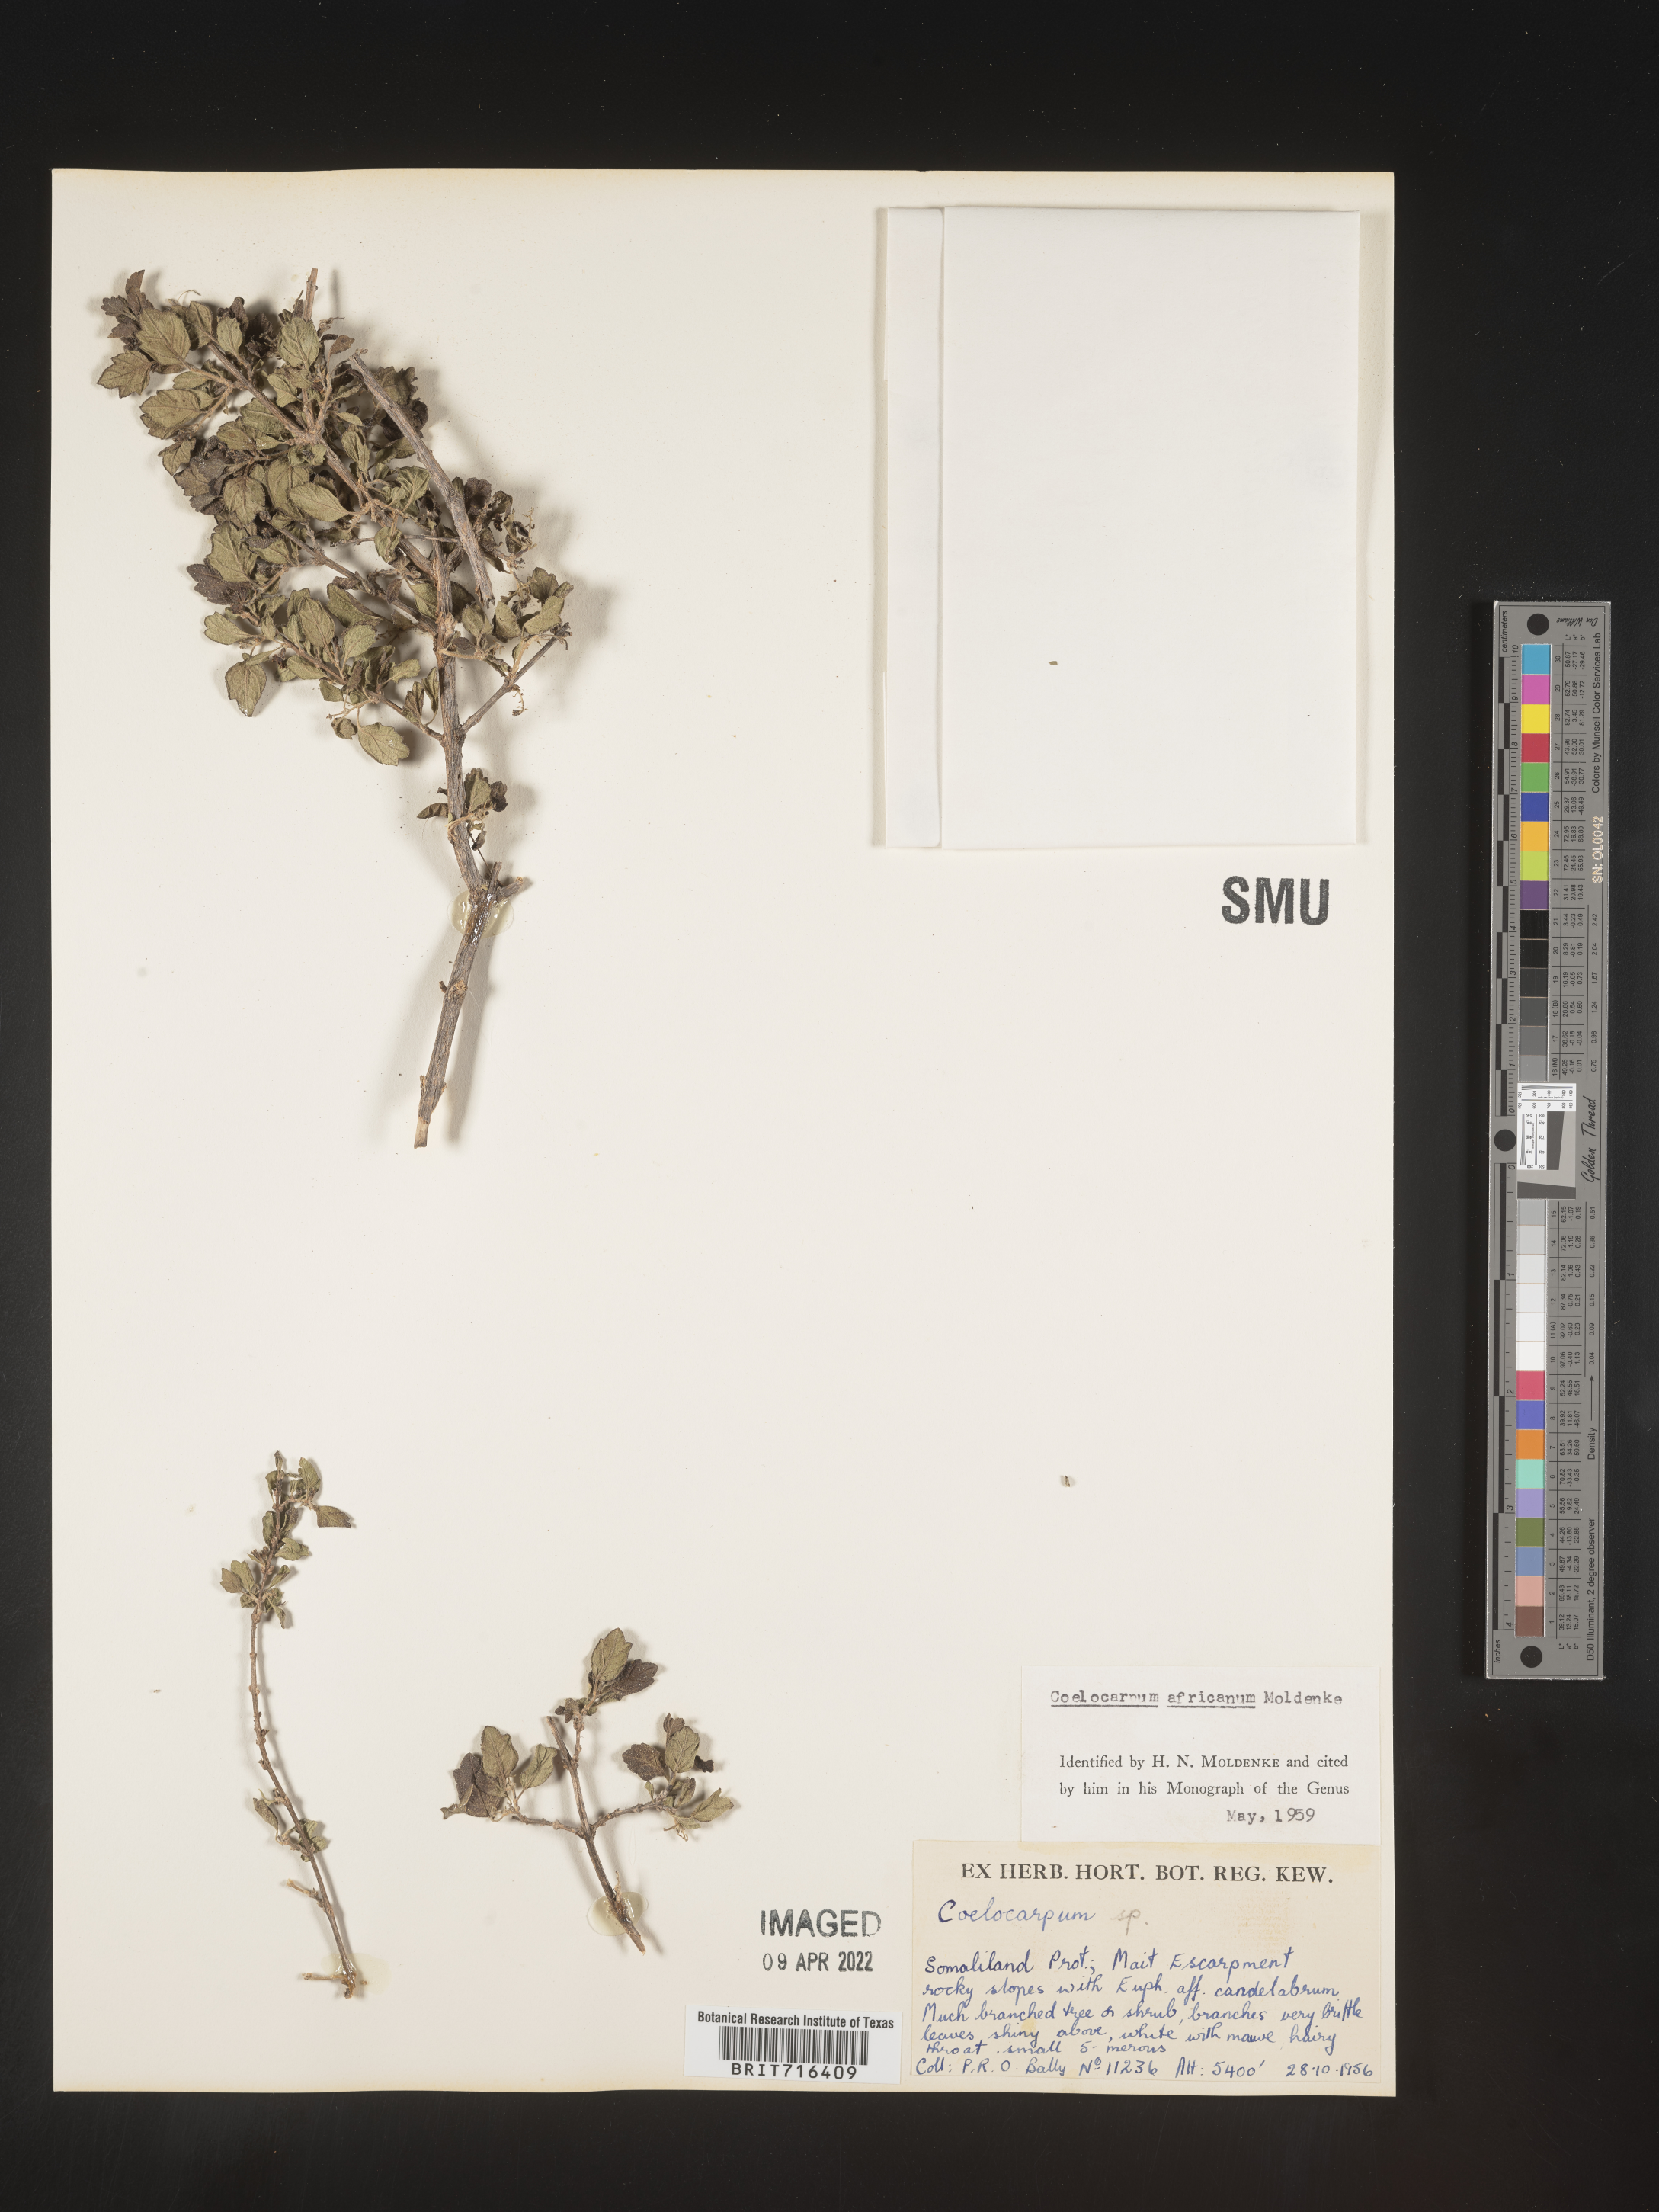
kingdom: Plantae
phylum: Tracheophyta
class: Magnoliopsida
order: Lamiales
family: Verbenaceae
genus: Coelocarpum
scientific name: Coelocarpum africanum
